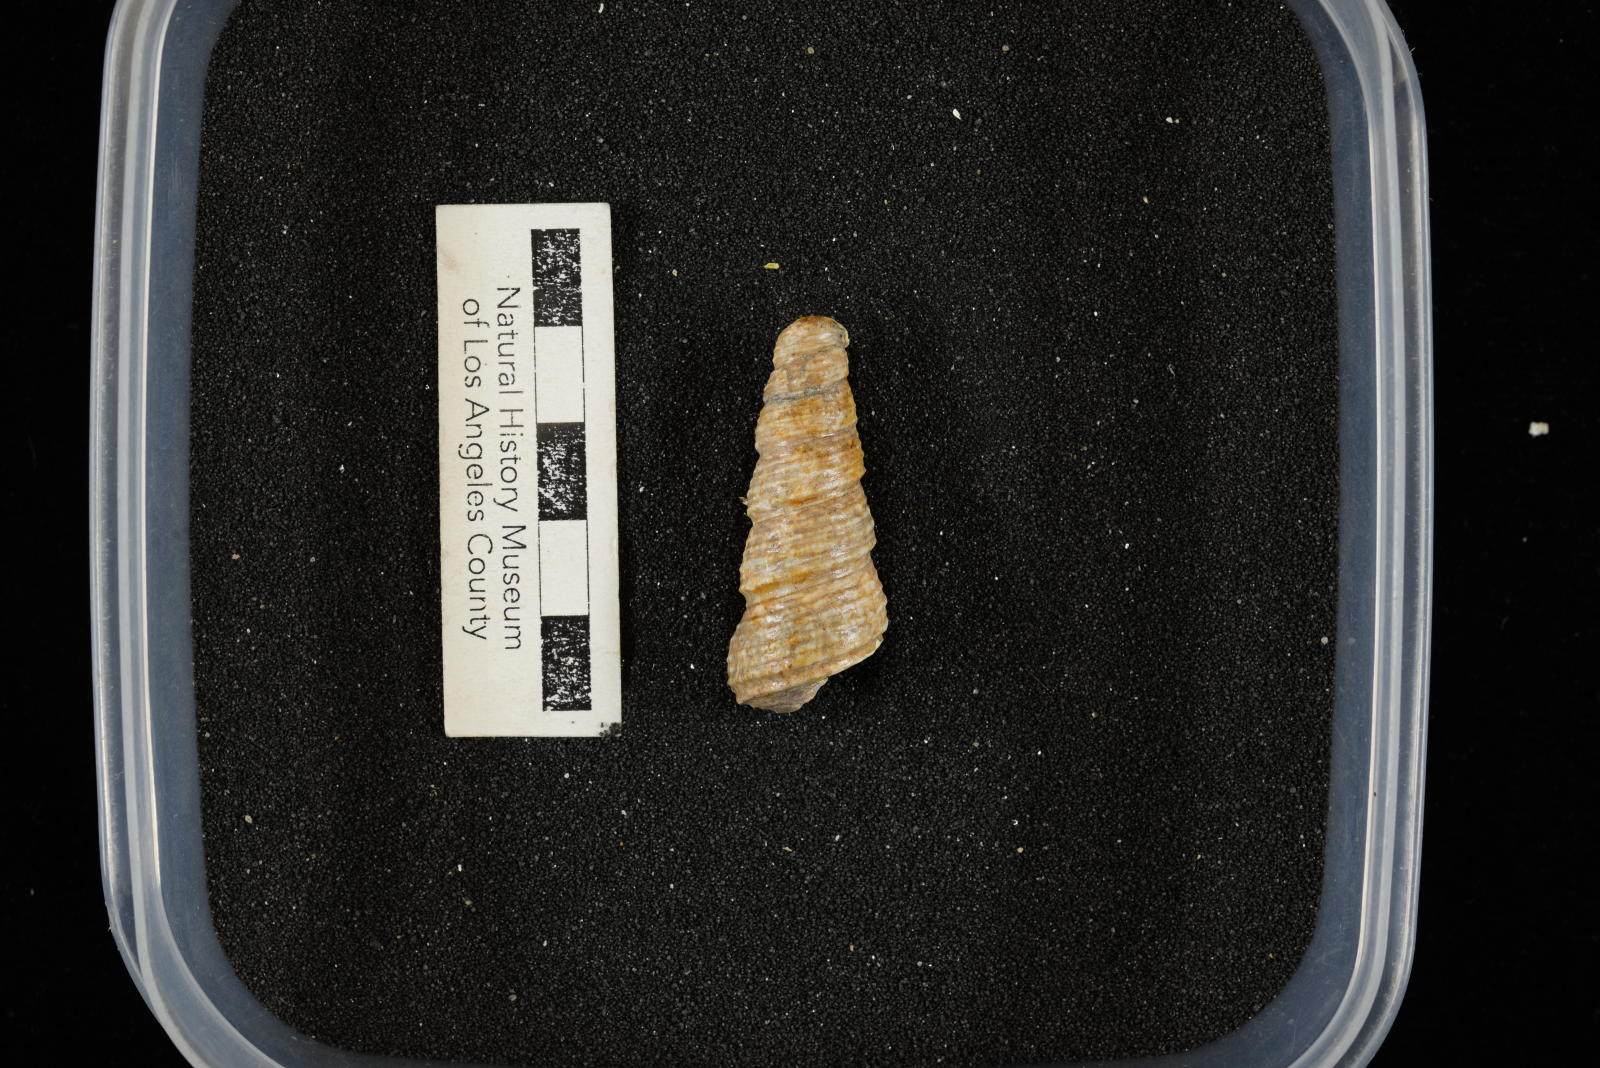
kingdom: Animalia
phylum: Mollusca
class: Gastropoda
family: Turritellidae
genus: Turritella
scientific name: Turritella chicoensis
